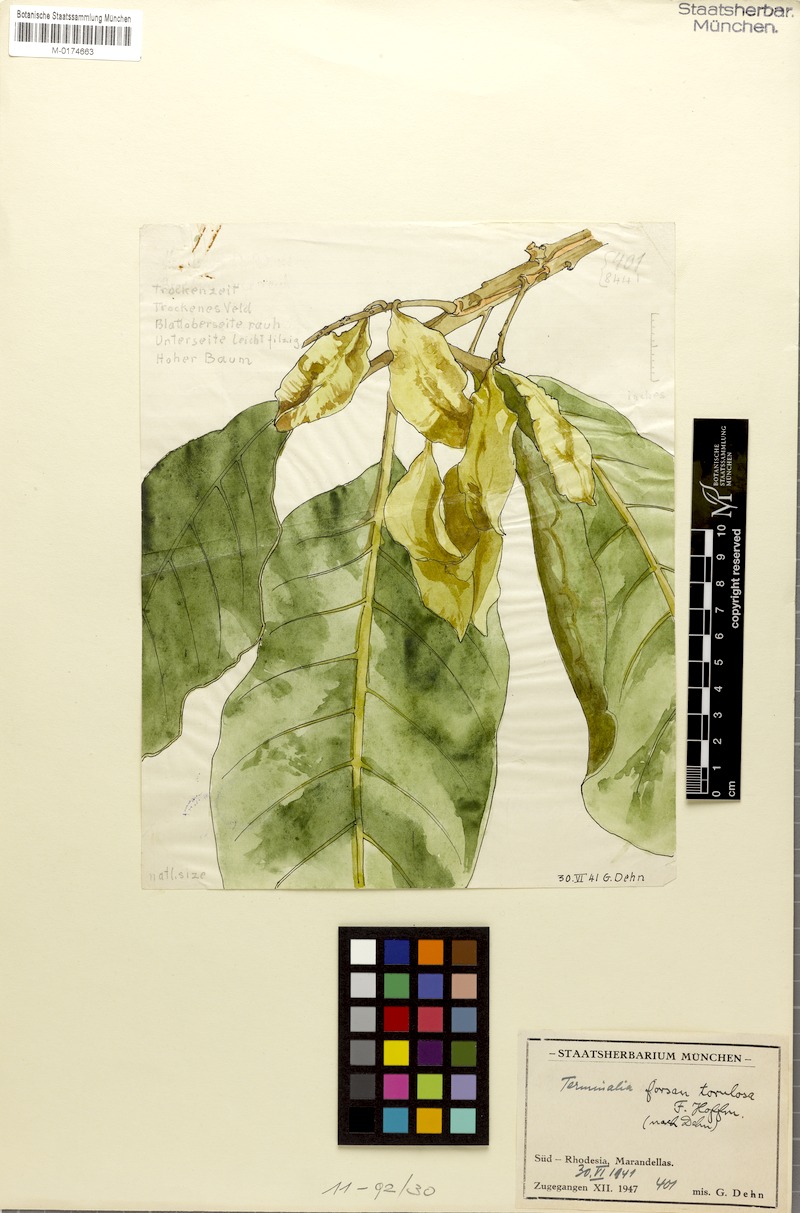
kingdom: Plantae
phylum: Tracheophyta
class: Magnoliopsida
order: Myrtales
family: Combretaceae
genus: Terminalia
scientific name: Terminalia mollis
